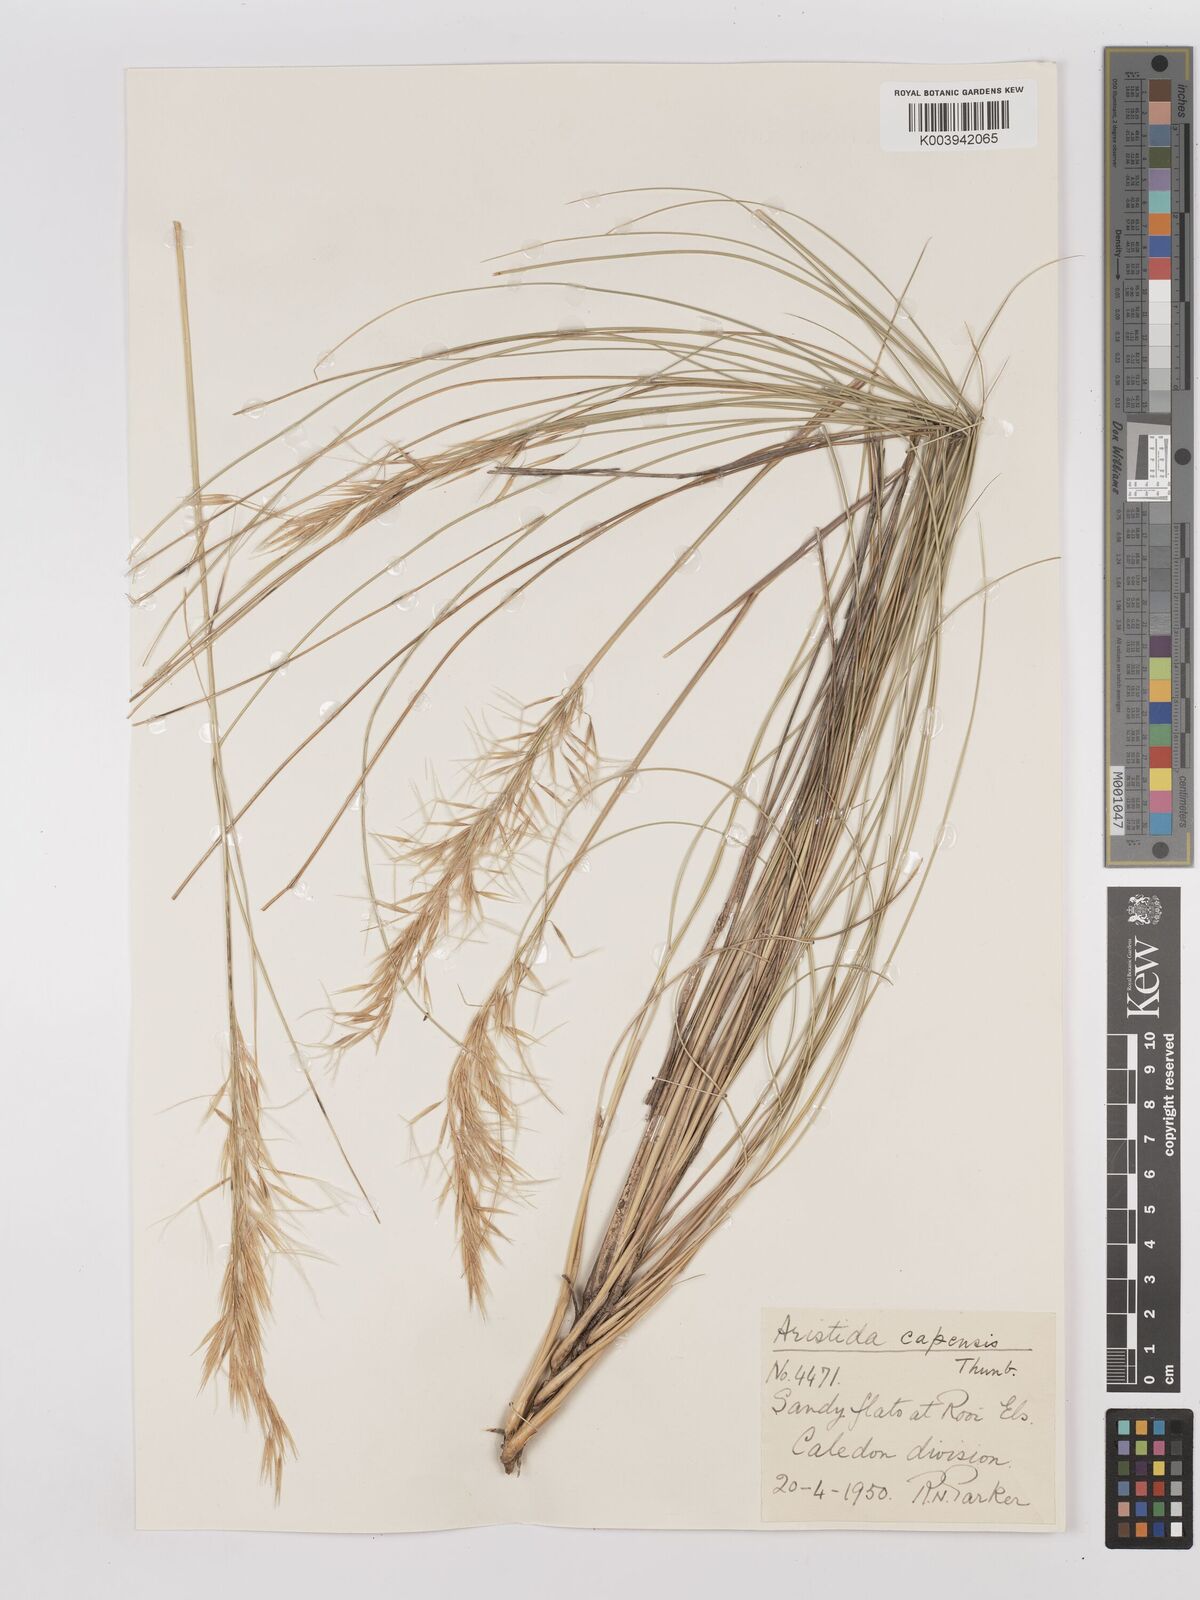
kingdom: Plantae
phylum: Tracheophyta
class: Liliopsida
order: Poales
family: Poaceae
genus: Stipagrostis
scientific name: Stipagrostis zeyheri
